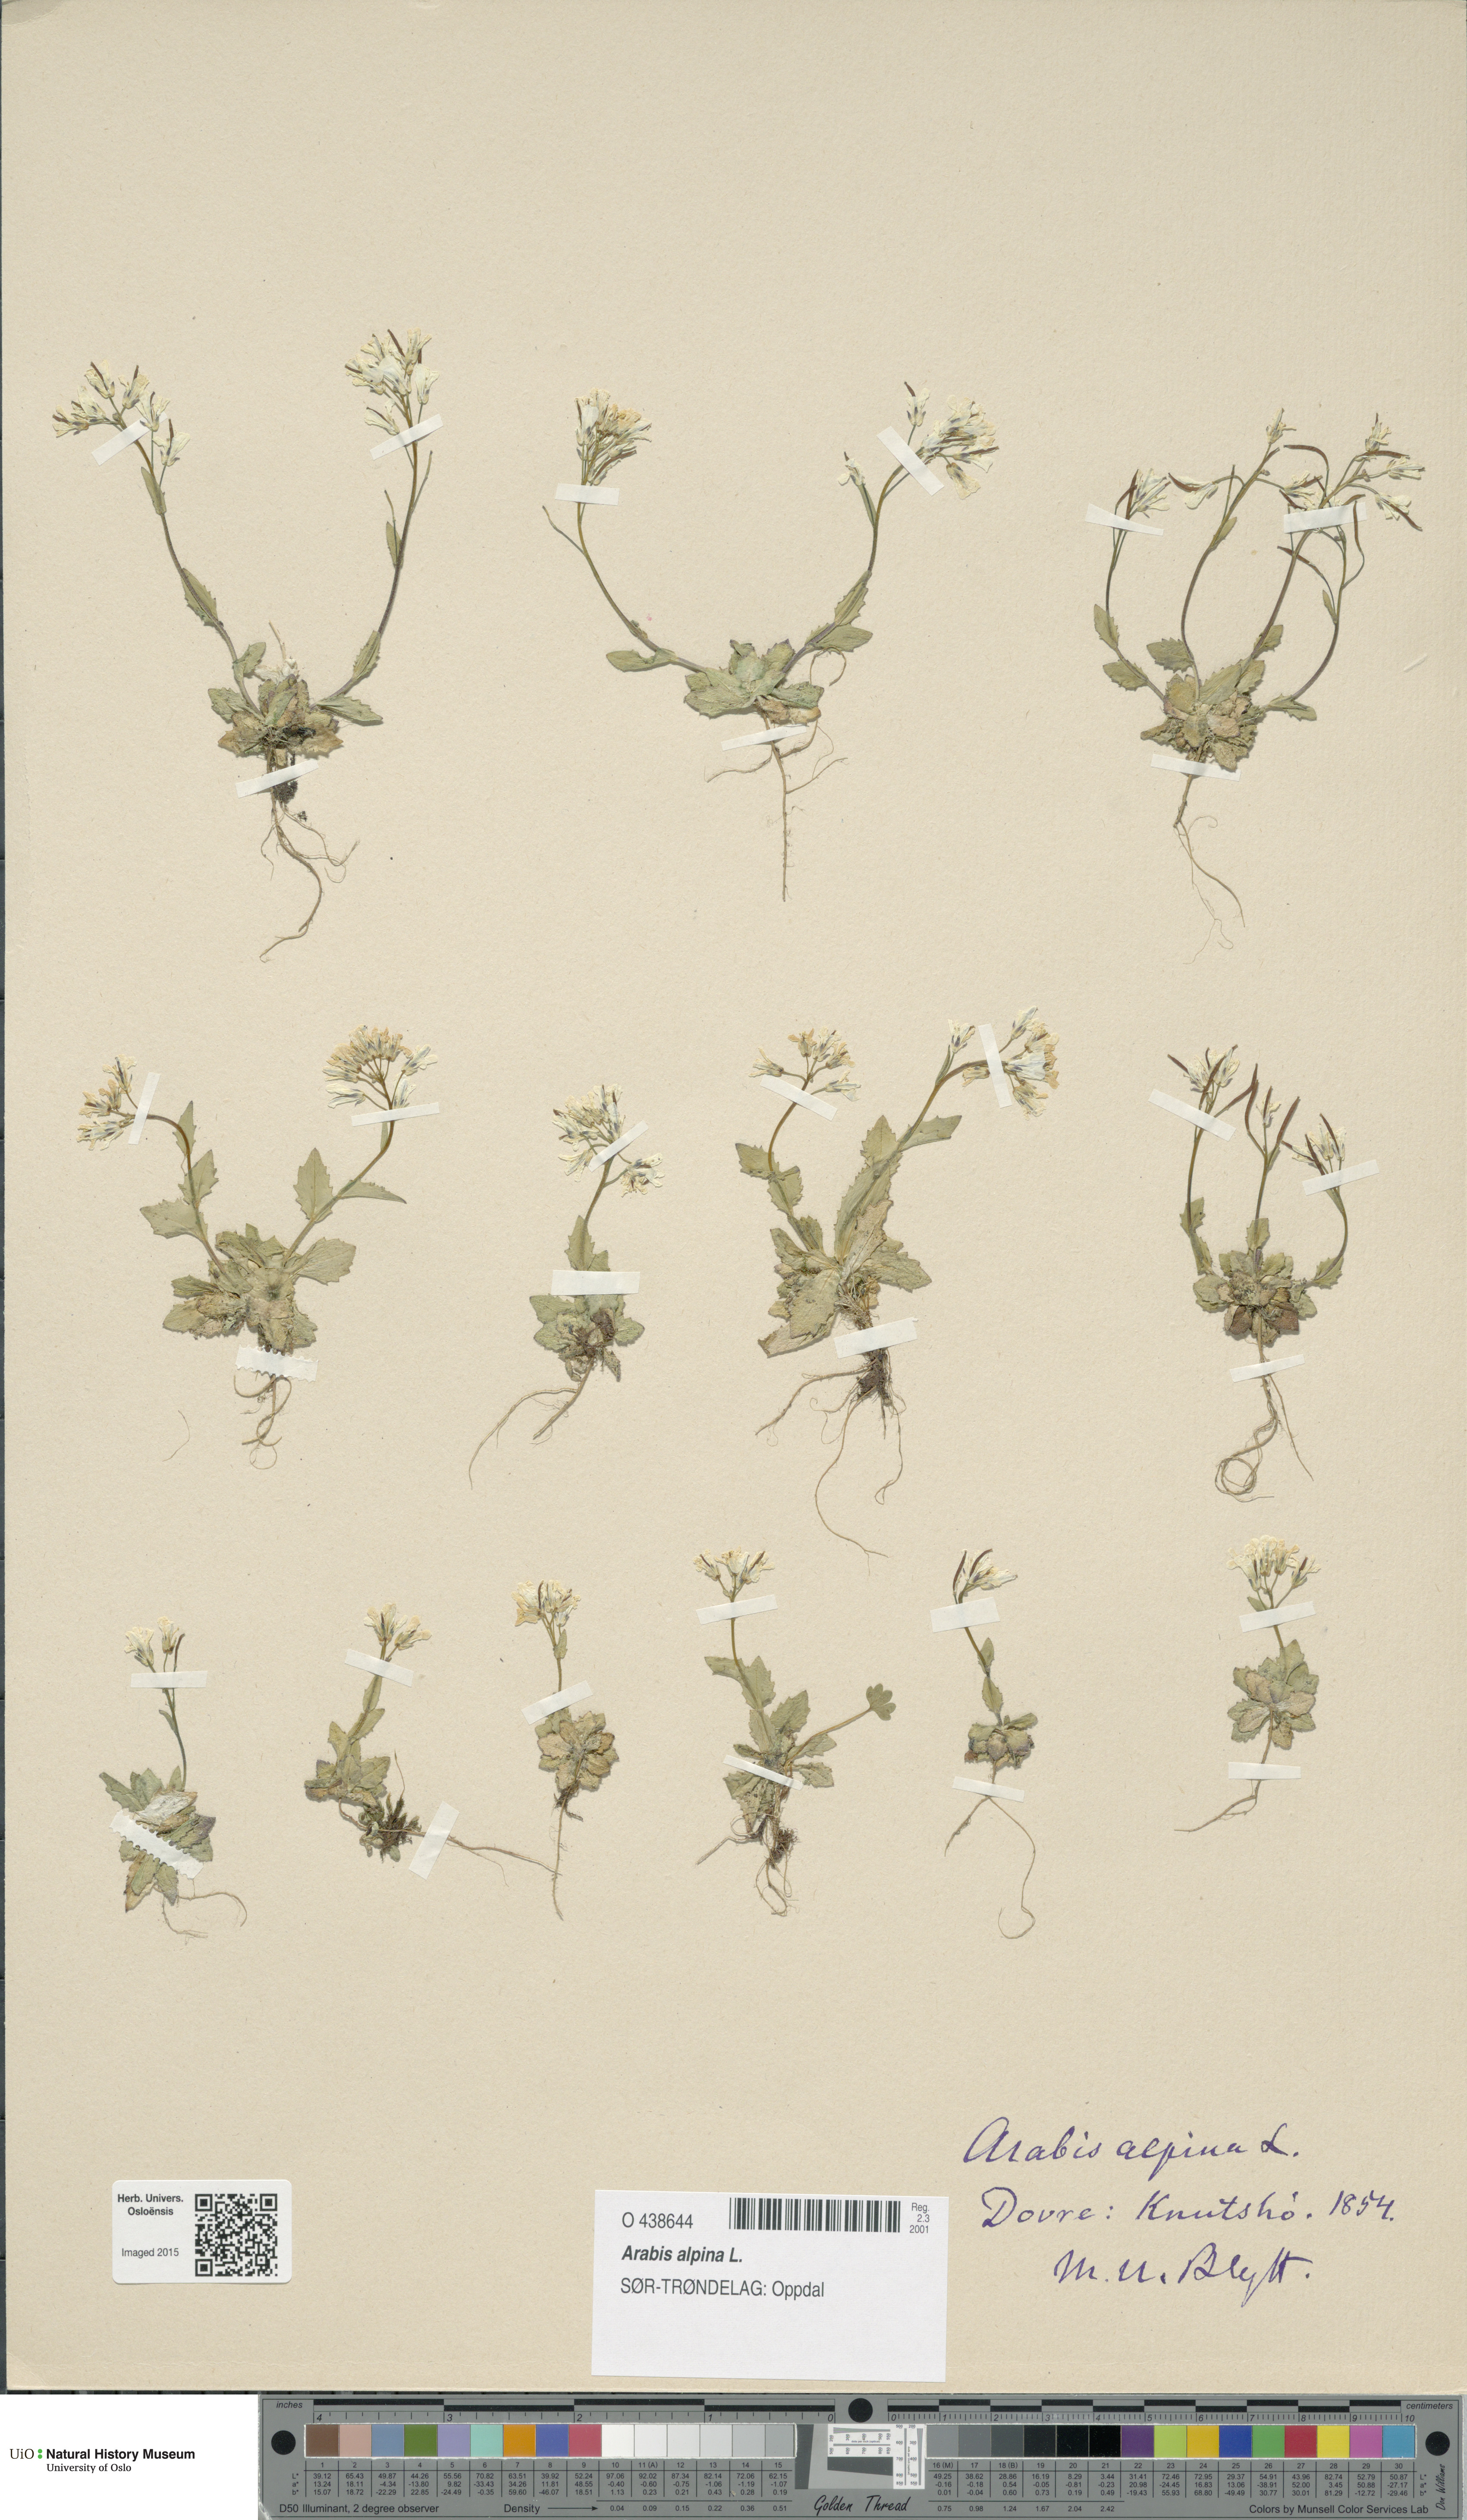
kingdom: Plantae
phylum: Tracheophyta
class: Magnoliopsida
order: Brassicales
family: Brassicaceae
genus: Arabis
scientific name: Arabis alpina
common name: Alpine rock-cress
